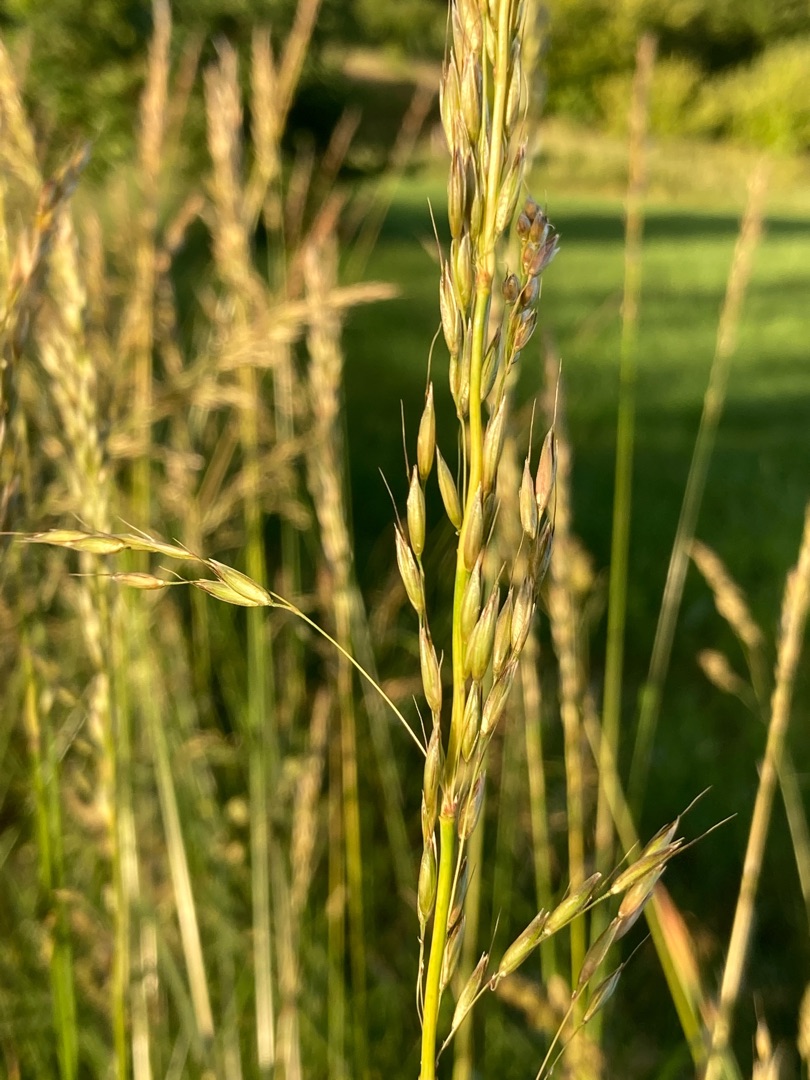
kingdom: Plantae
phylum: Tracheophyta
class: Liliopsida
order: Poales
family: Poaceae
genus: Arrhenatherum
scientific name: Arrhenatherum elatius
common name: Draphavre
